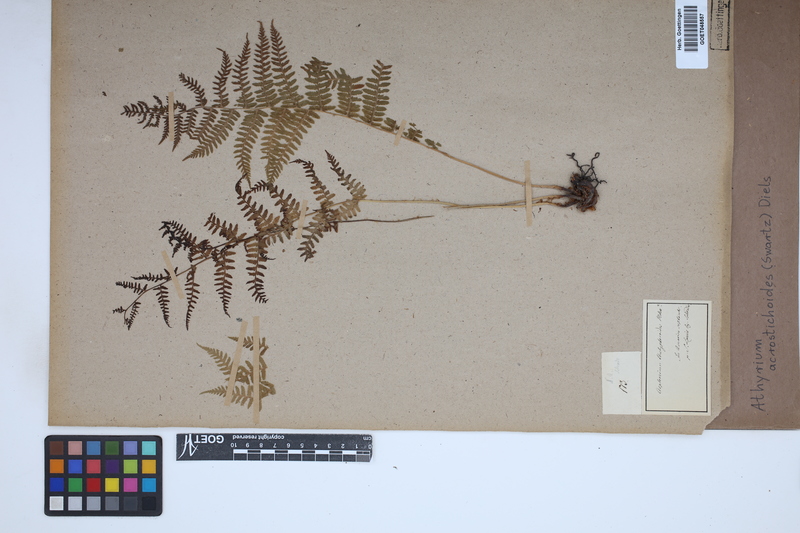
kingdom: Plantae
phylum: Tracheophyta
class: Polypodiopsida
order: Polypodiales
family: Athyriaceae
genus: Deparia
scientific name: Deparia acrostichoides
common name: Silver false spleenwort
